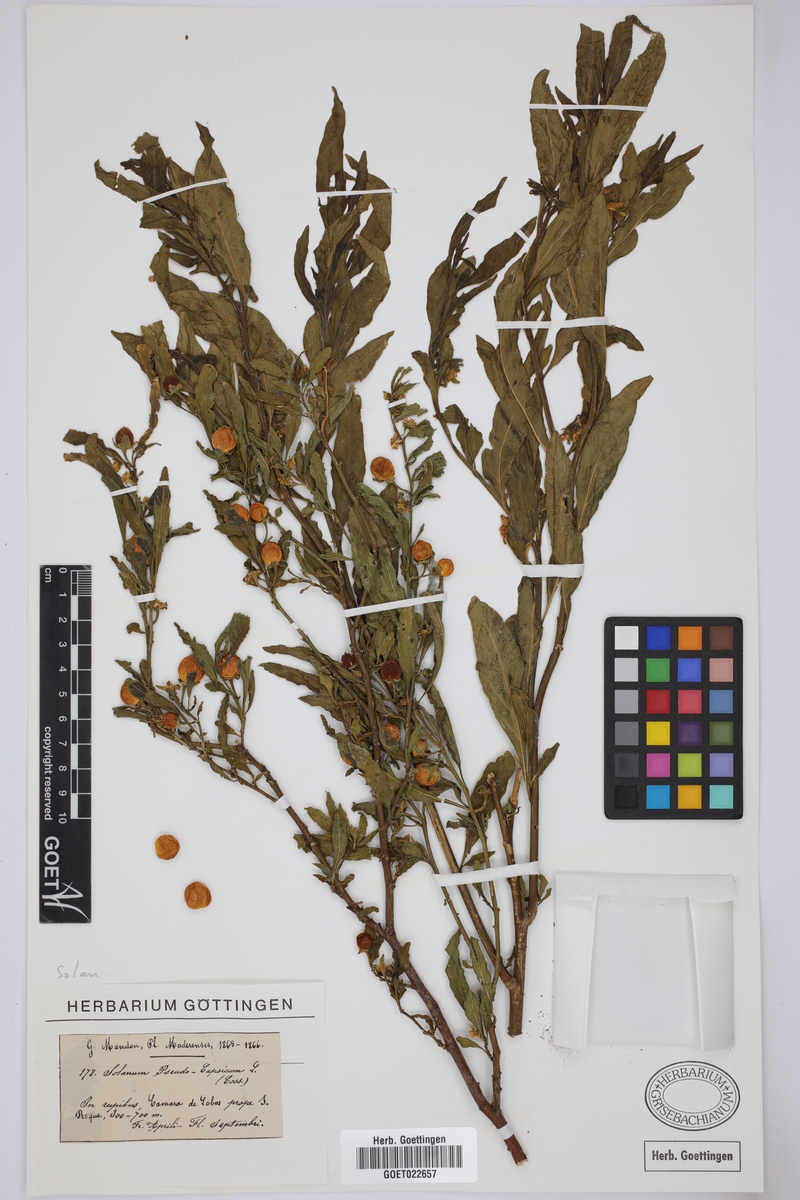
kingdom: Plantae
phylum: Tracheophyta
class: Magnoliopsida
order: Solanales
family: Solanaceae
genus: Solanum
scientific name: Solanum pseudocapsicum
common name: Jerusalem cherry
